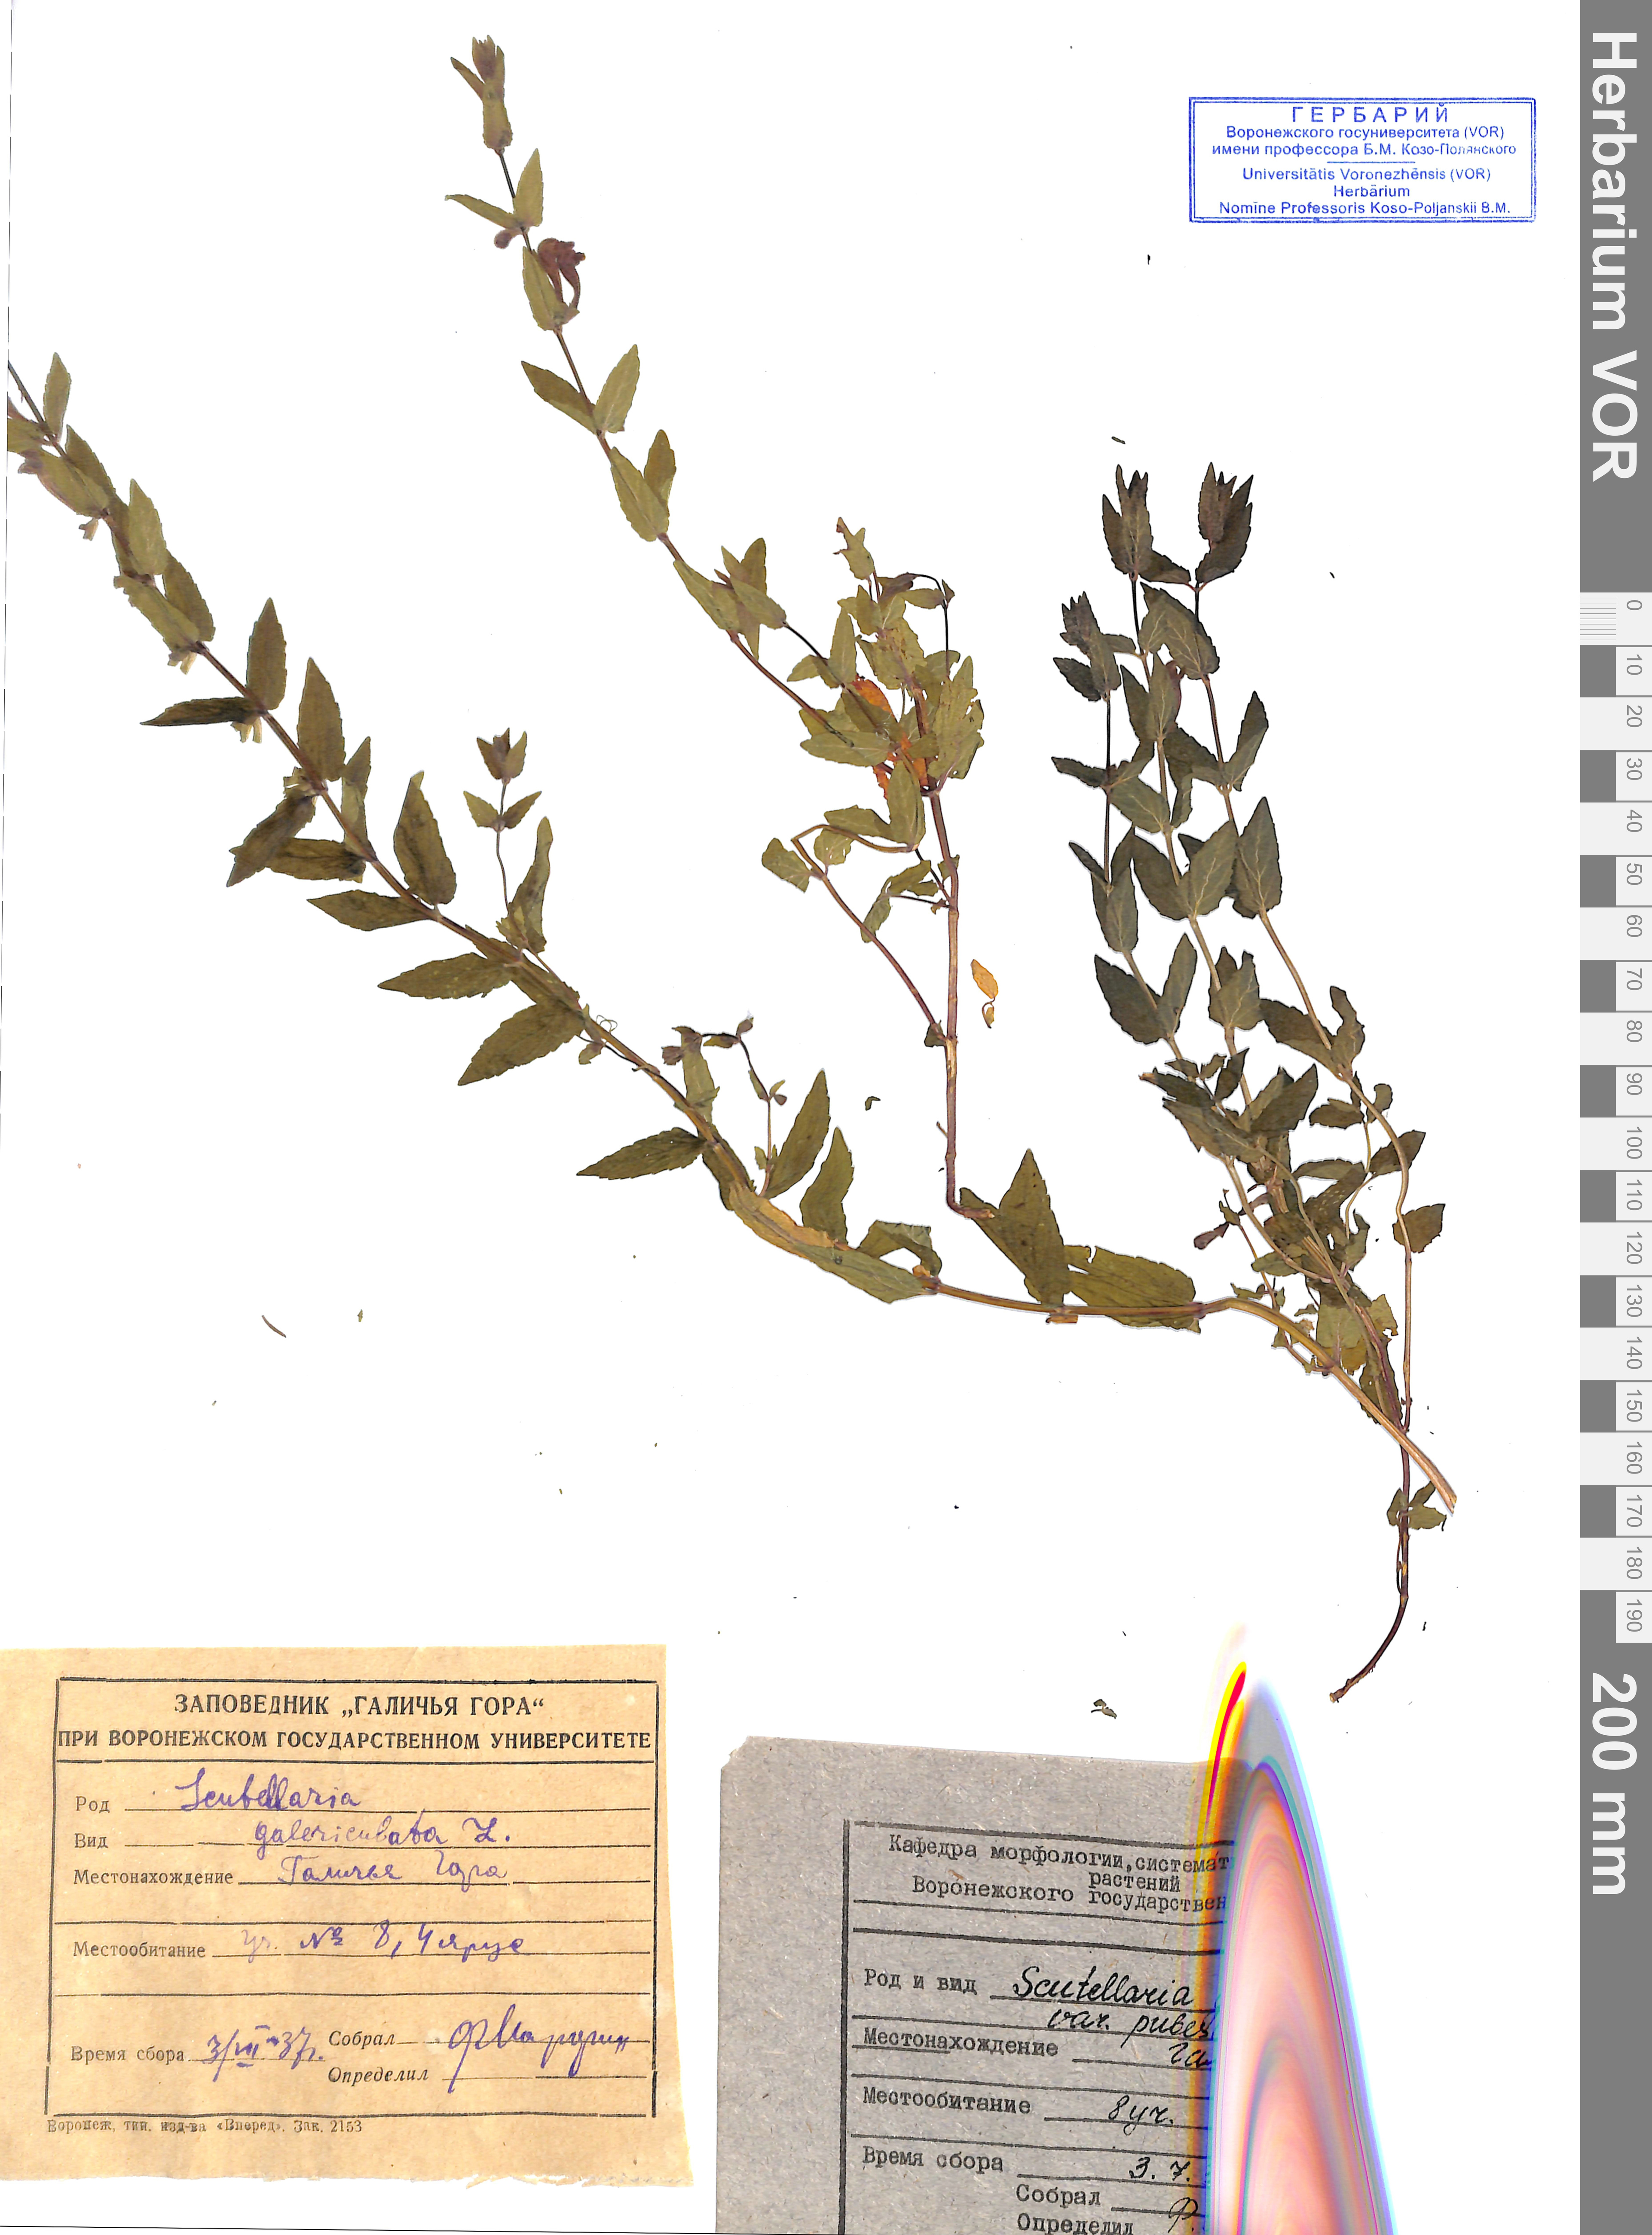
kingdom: Plantae
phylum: Tracheophyta
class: Magnoliopsida
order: Lamiales
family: Lamiaceae
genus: Scutellaria
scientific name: Scutellaria galericulata
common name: Skullcap
